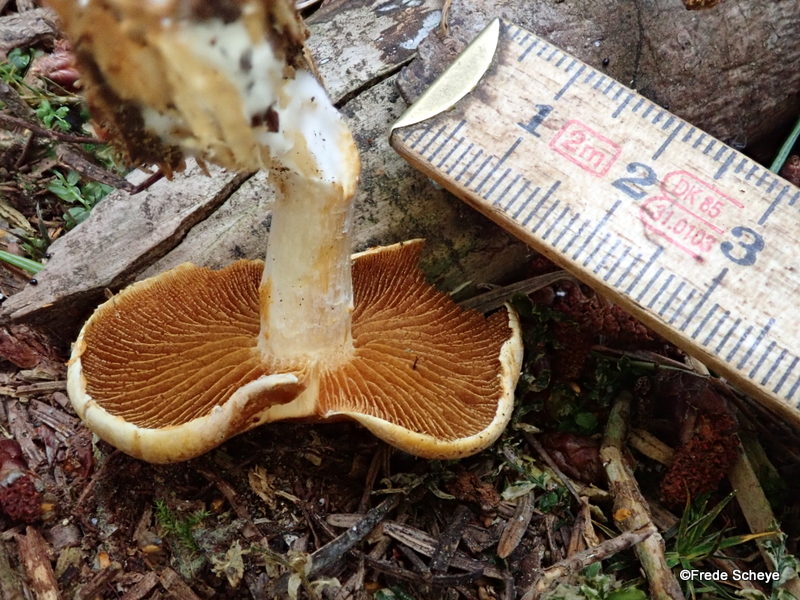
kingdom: Fungi
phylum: Basidiomycota
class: Agaricomycetes
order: Agaricales
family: Hymenogastraceae
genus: Gymnopilus
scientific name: Gymnopilus penetrans
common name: plettet flammehat
